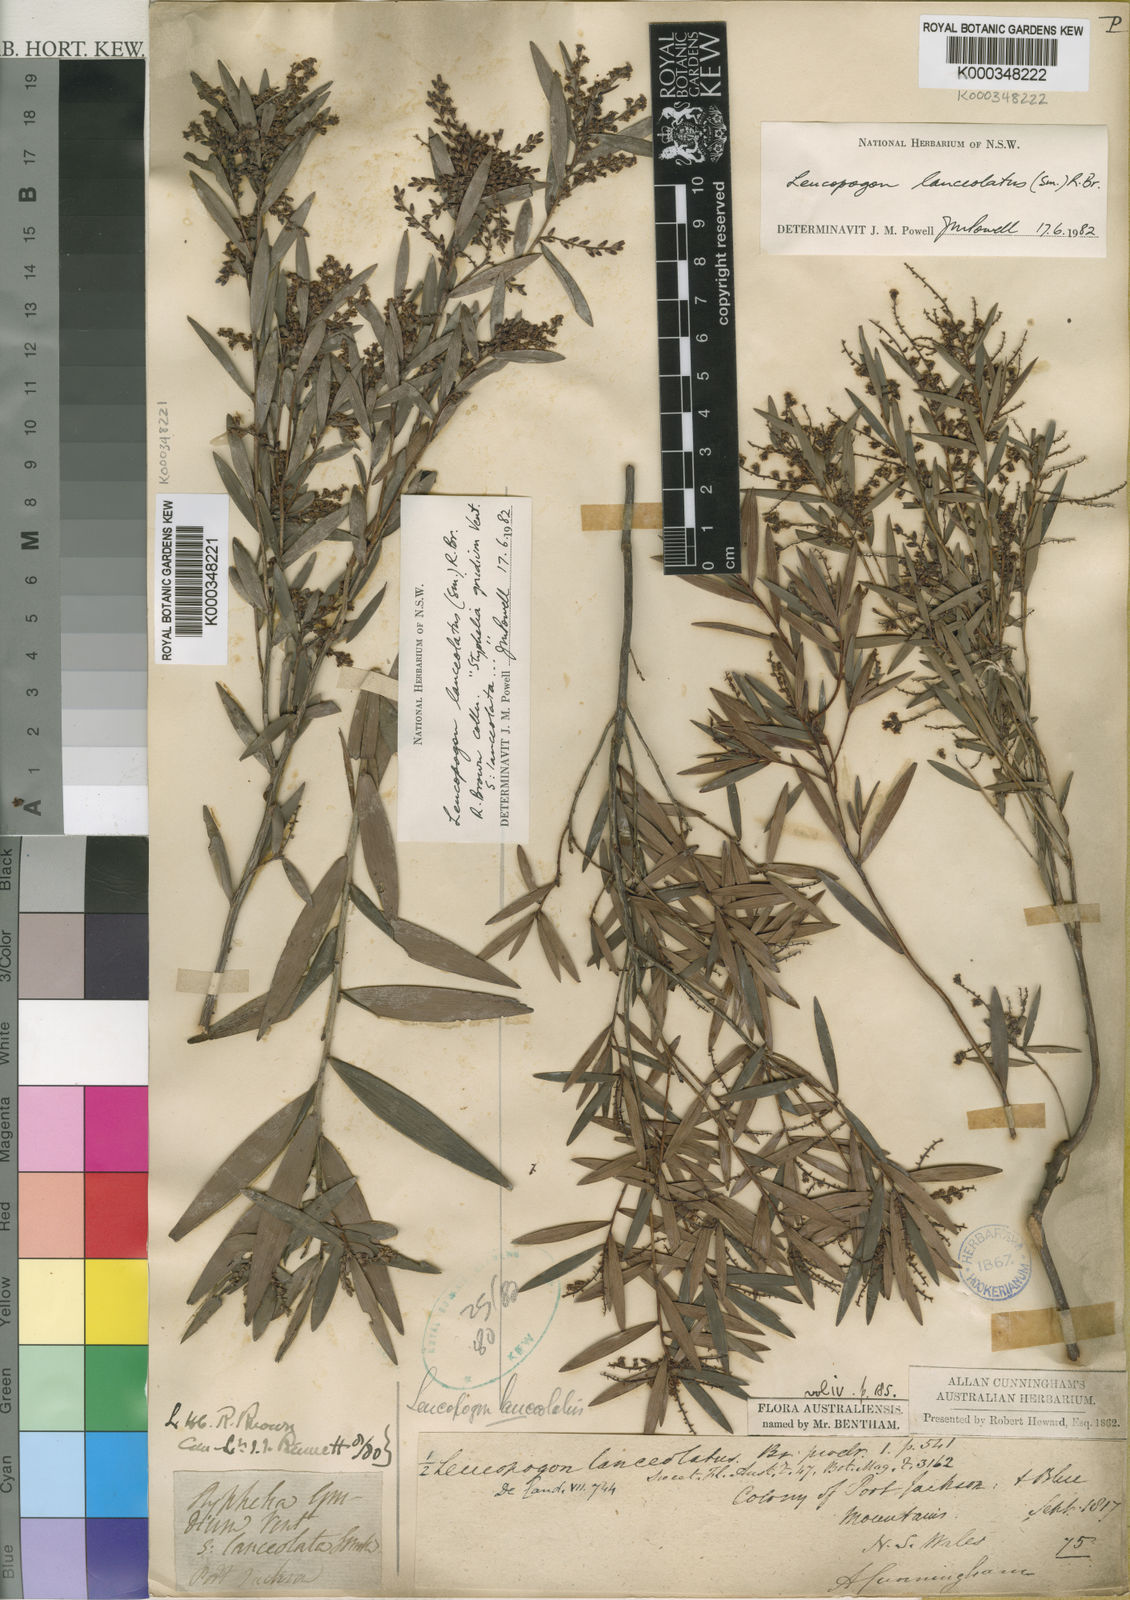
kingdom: Plantae
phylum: Tracheophyta
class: Magnoliopsida
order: Ericales
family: Ericaceae
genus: Leucopogon
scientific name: Leucopogon lanceolatus
